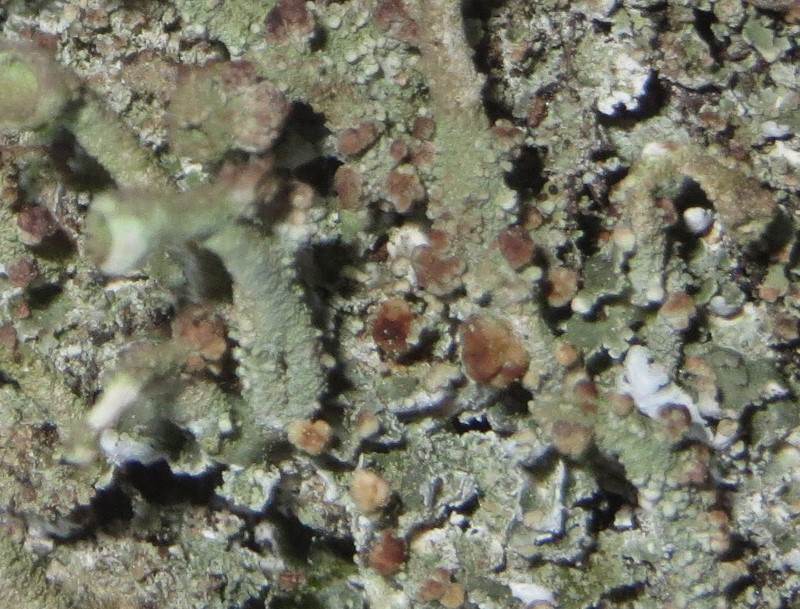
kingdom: Fungi
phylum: Basidiomycota
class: Tremellomycetes
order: Tremellales
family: Tremellaceae
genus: Tremella
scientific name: Tremella cladoniae
